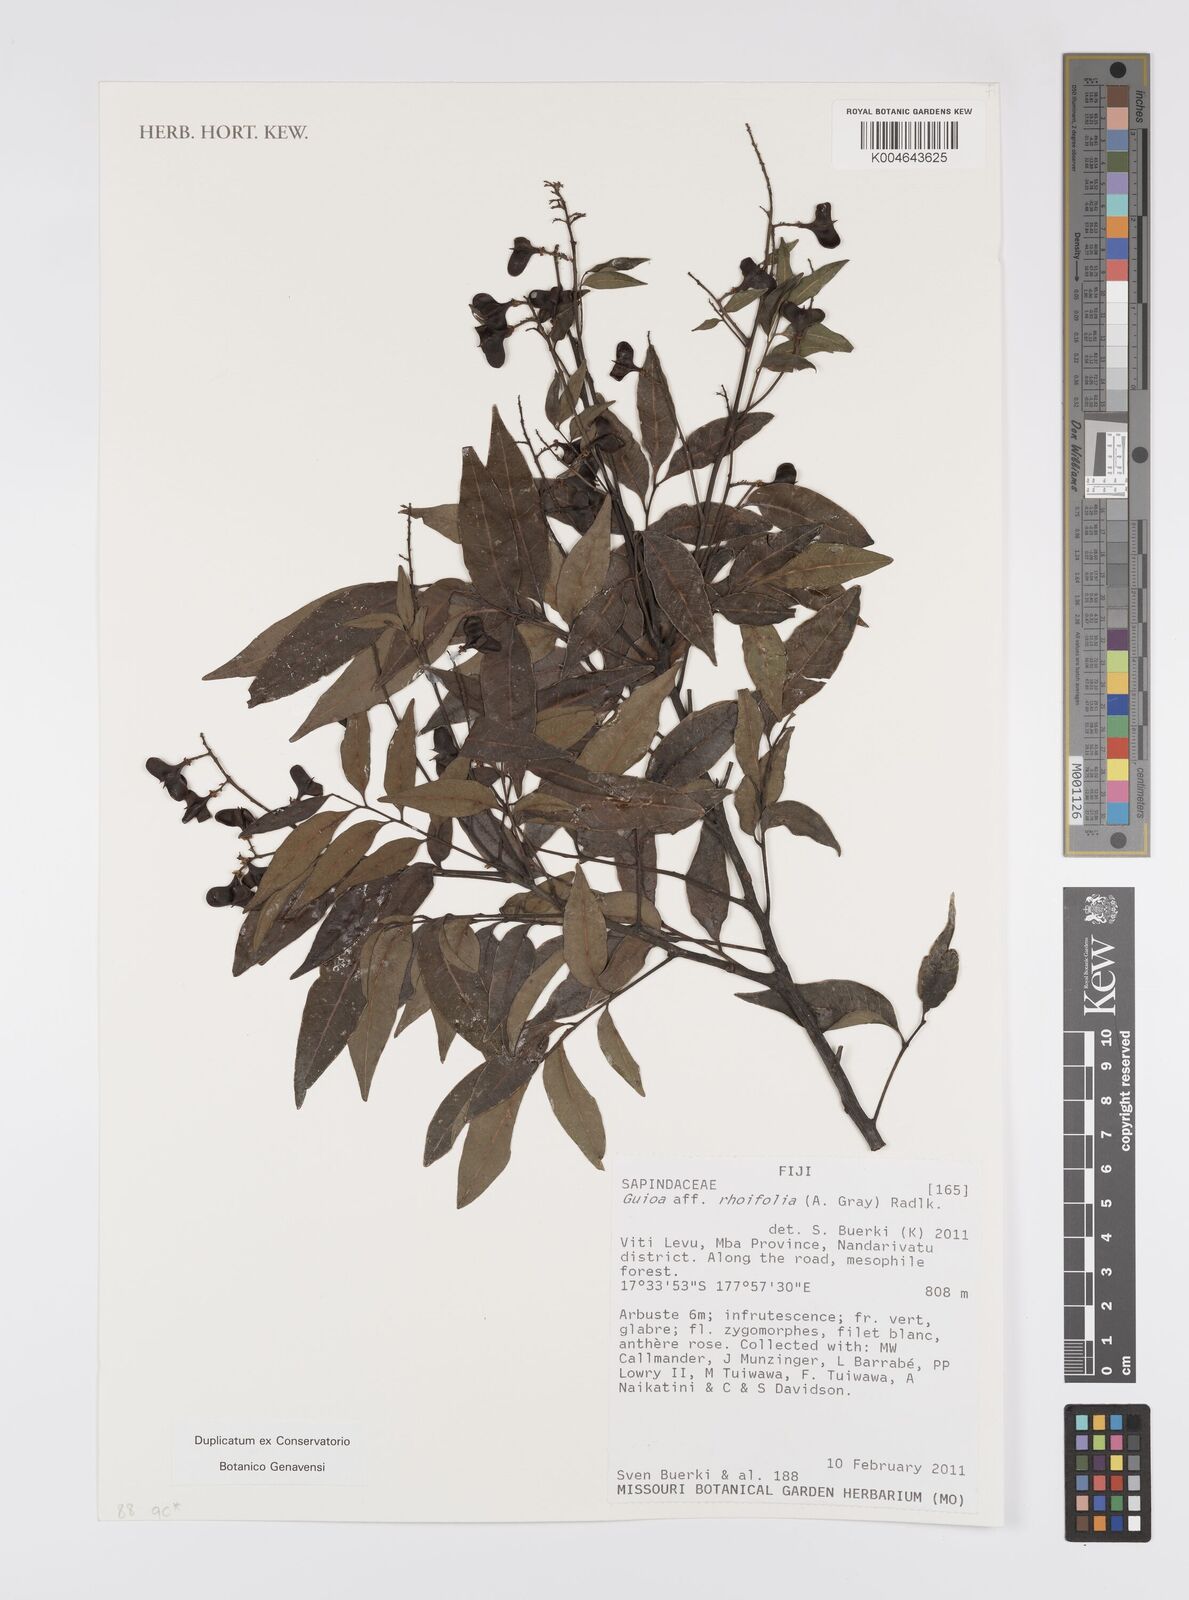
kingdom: Plantae
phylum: Tracheophyta
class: Magnoliopsida
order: Sapindales
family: Sapindaceae
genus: Guioa
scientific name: Guioa rhoifolia
